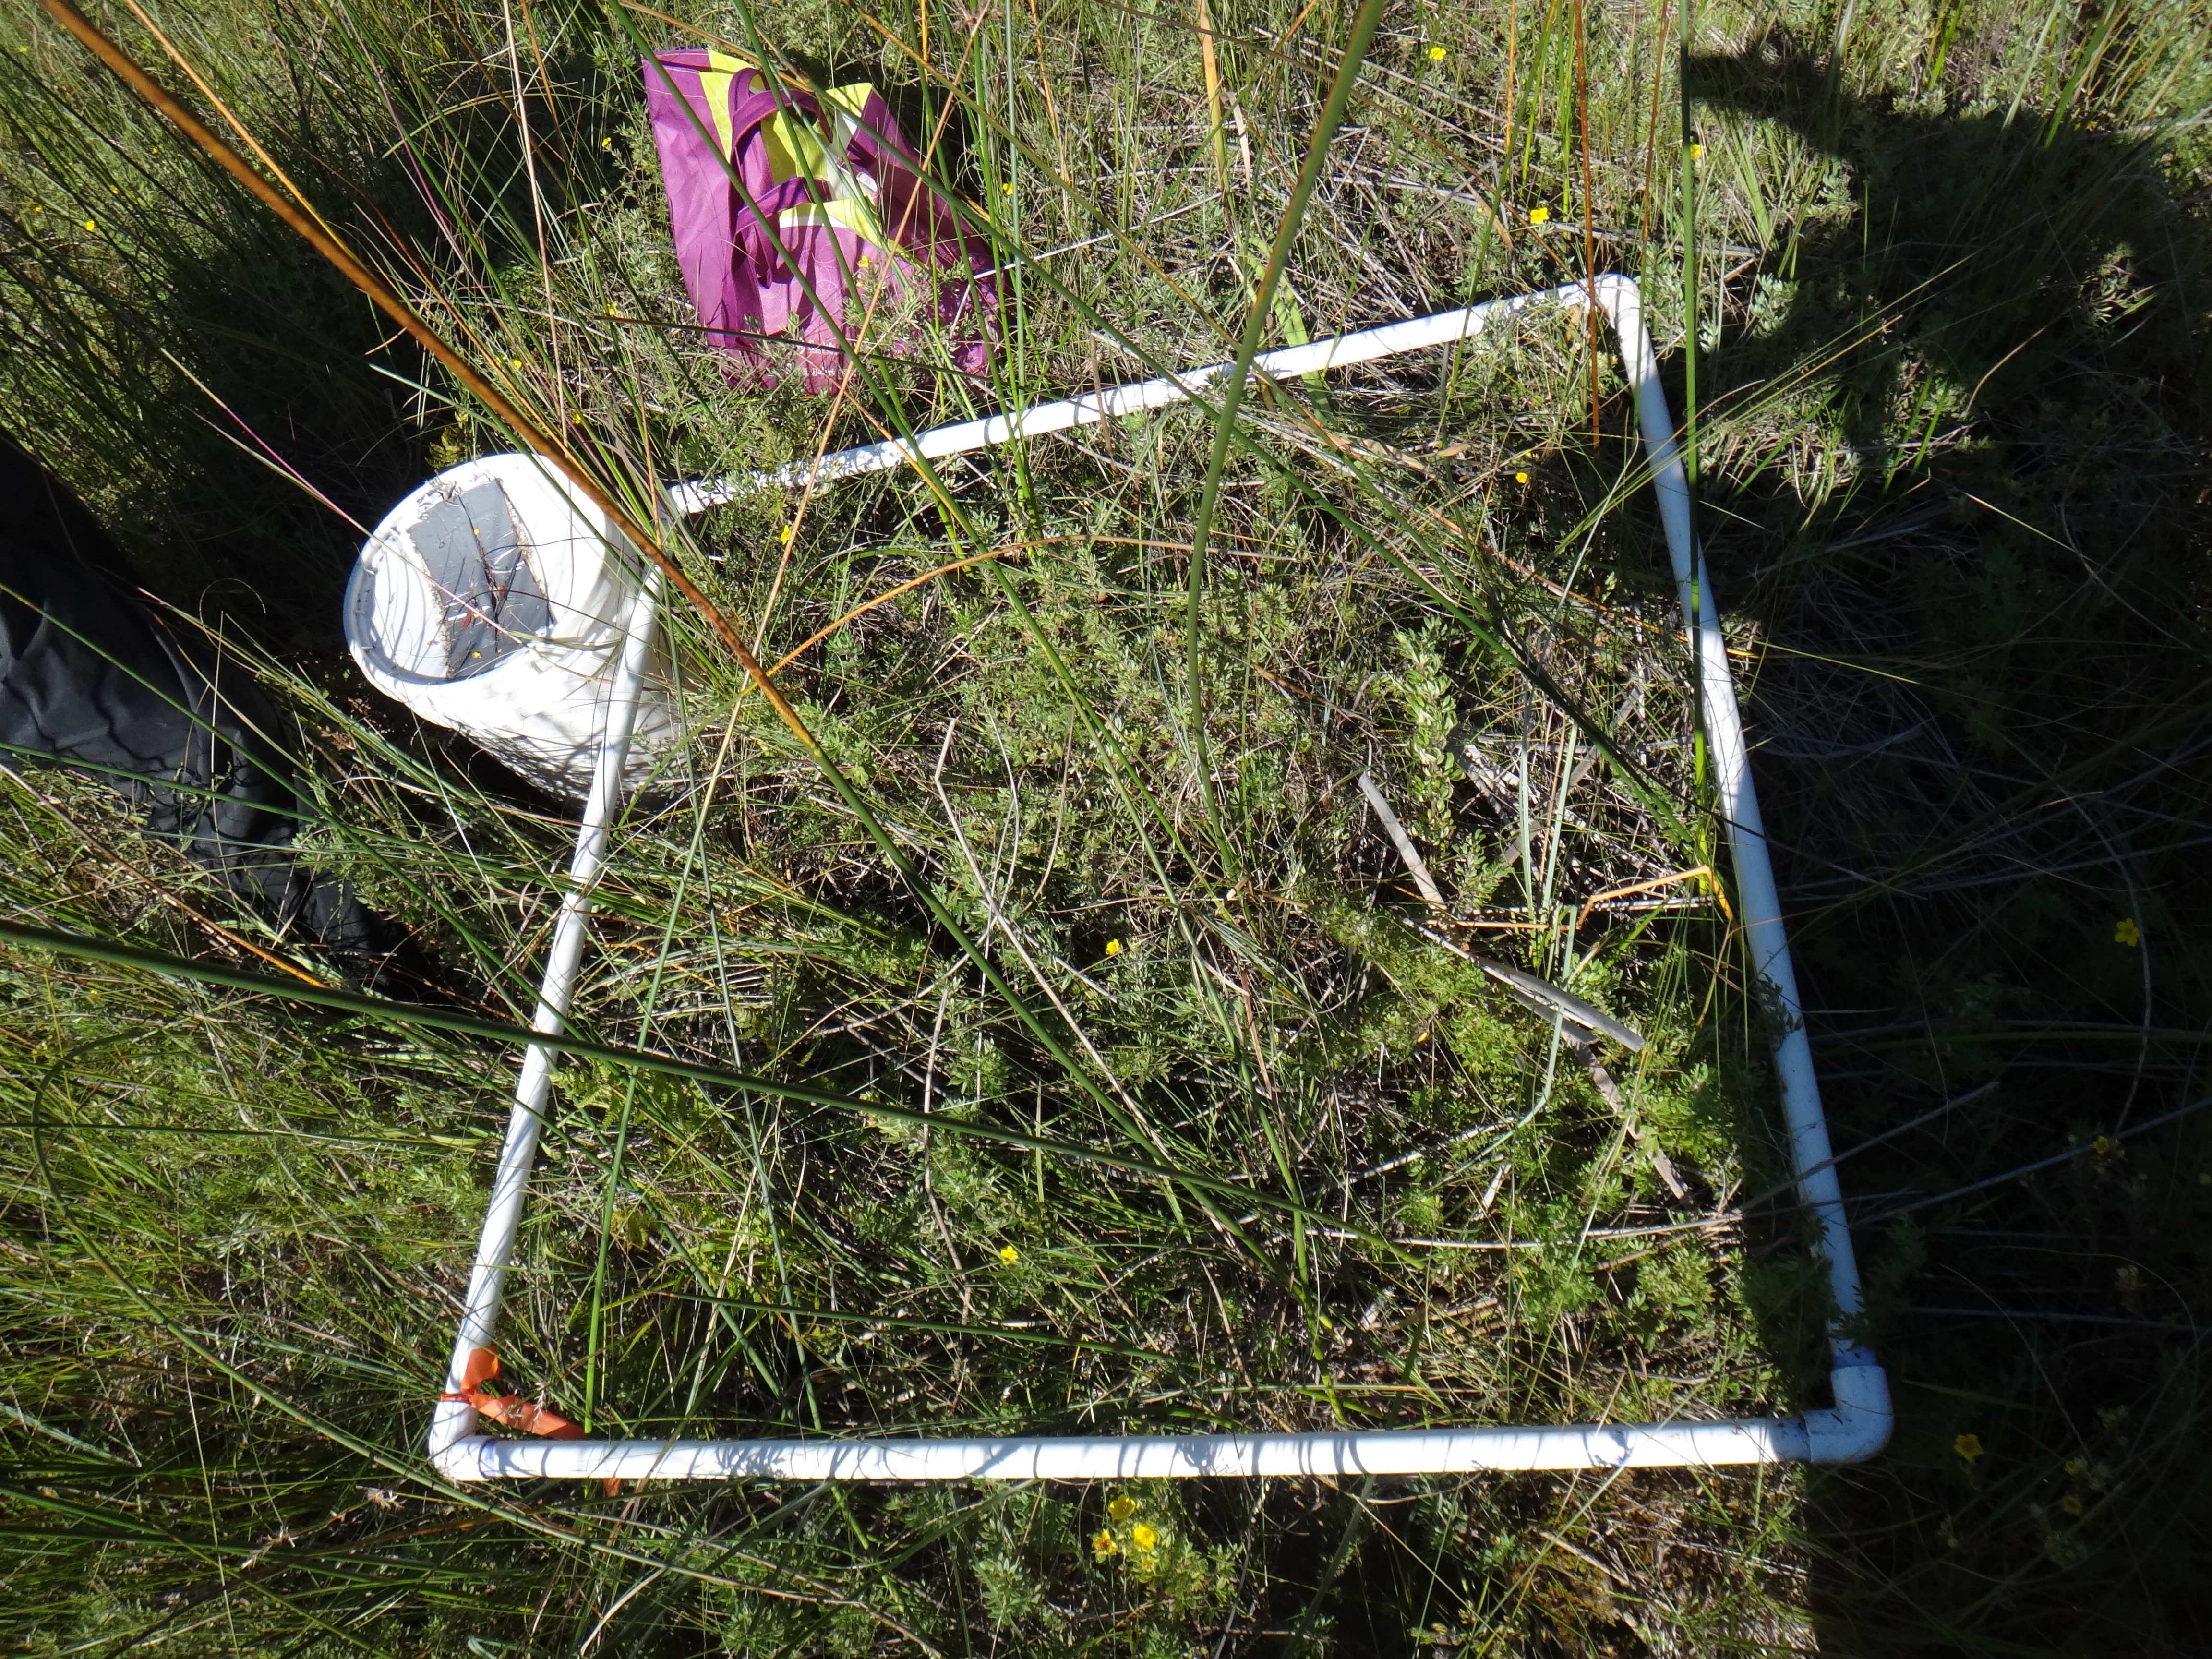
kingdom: Plantae
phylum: Tracheophyta
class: Liliopsida
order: Poales
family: Cyperaceae
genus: Eleocharis
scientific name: Eleocharis elliptica
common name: Capitate spikerush
